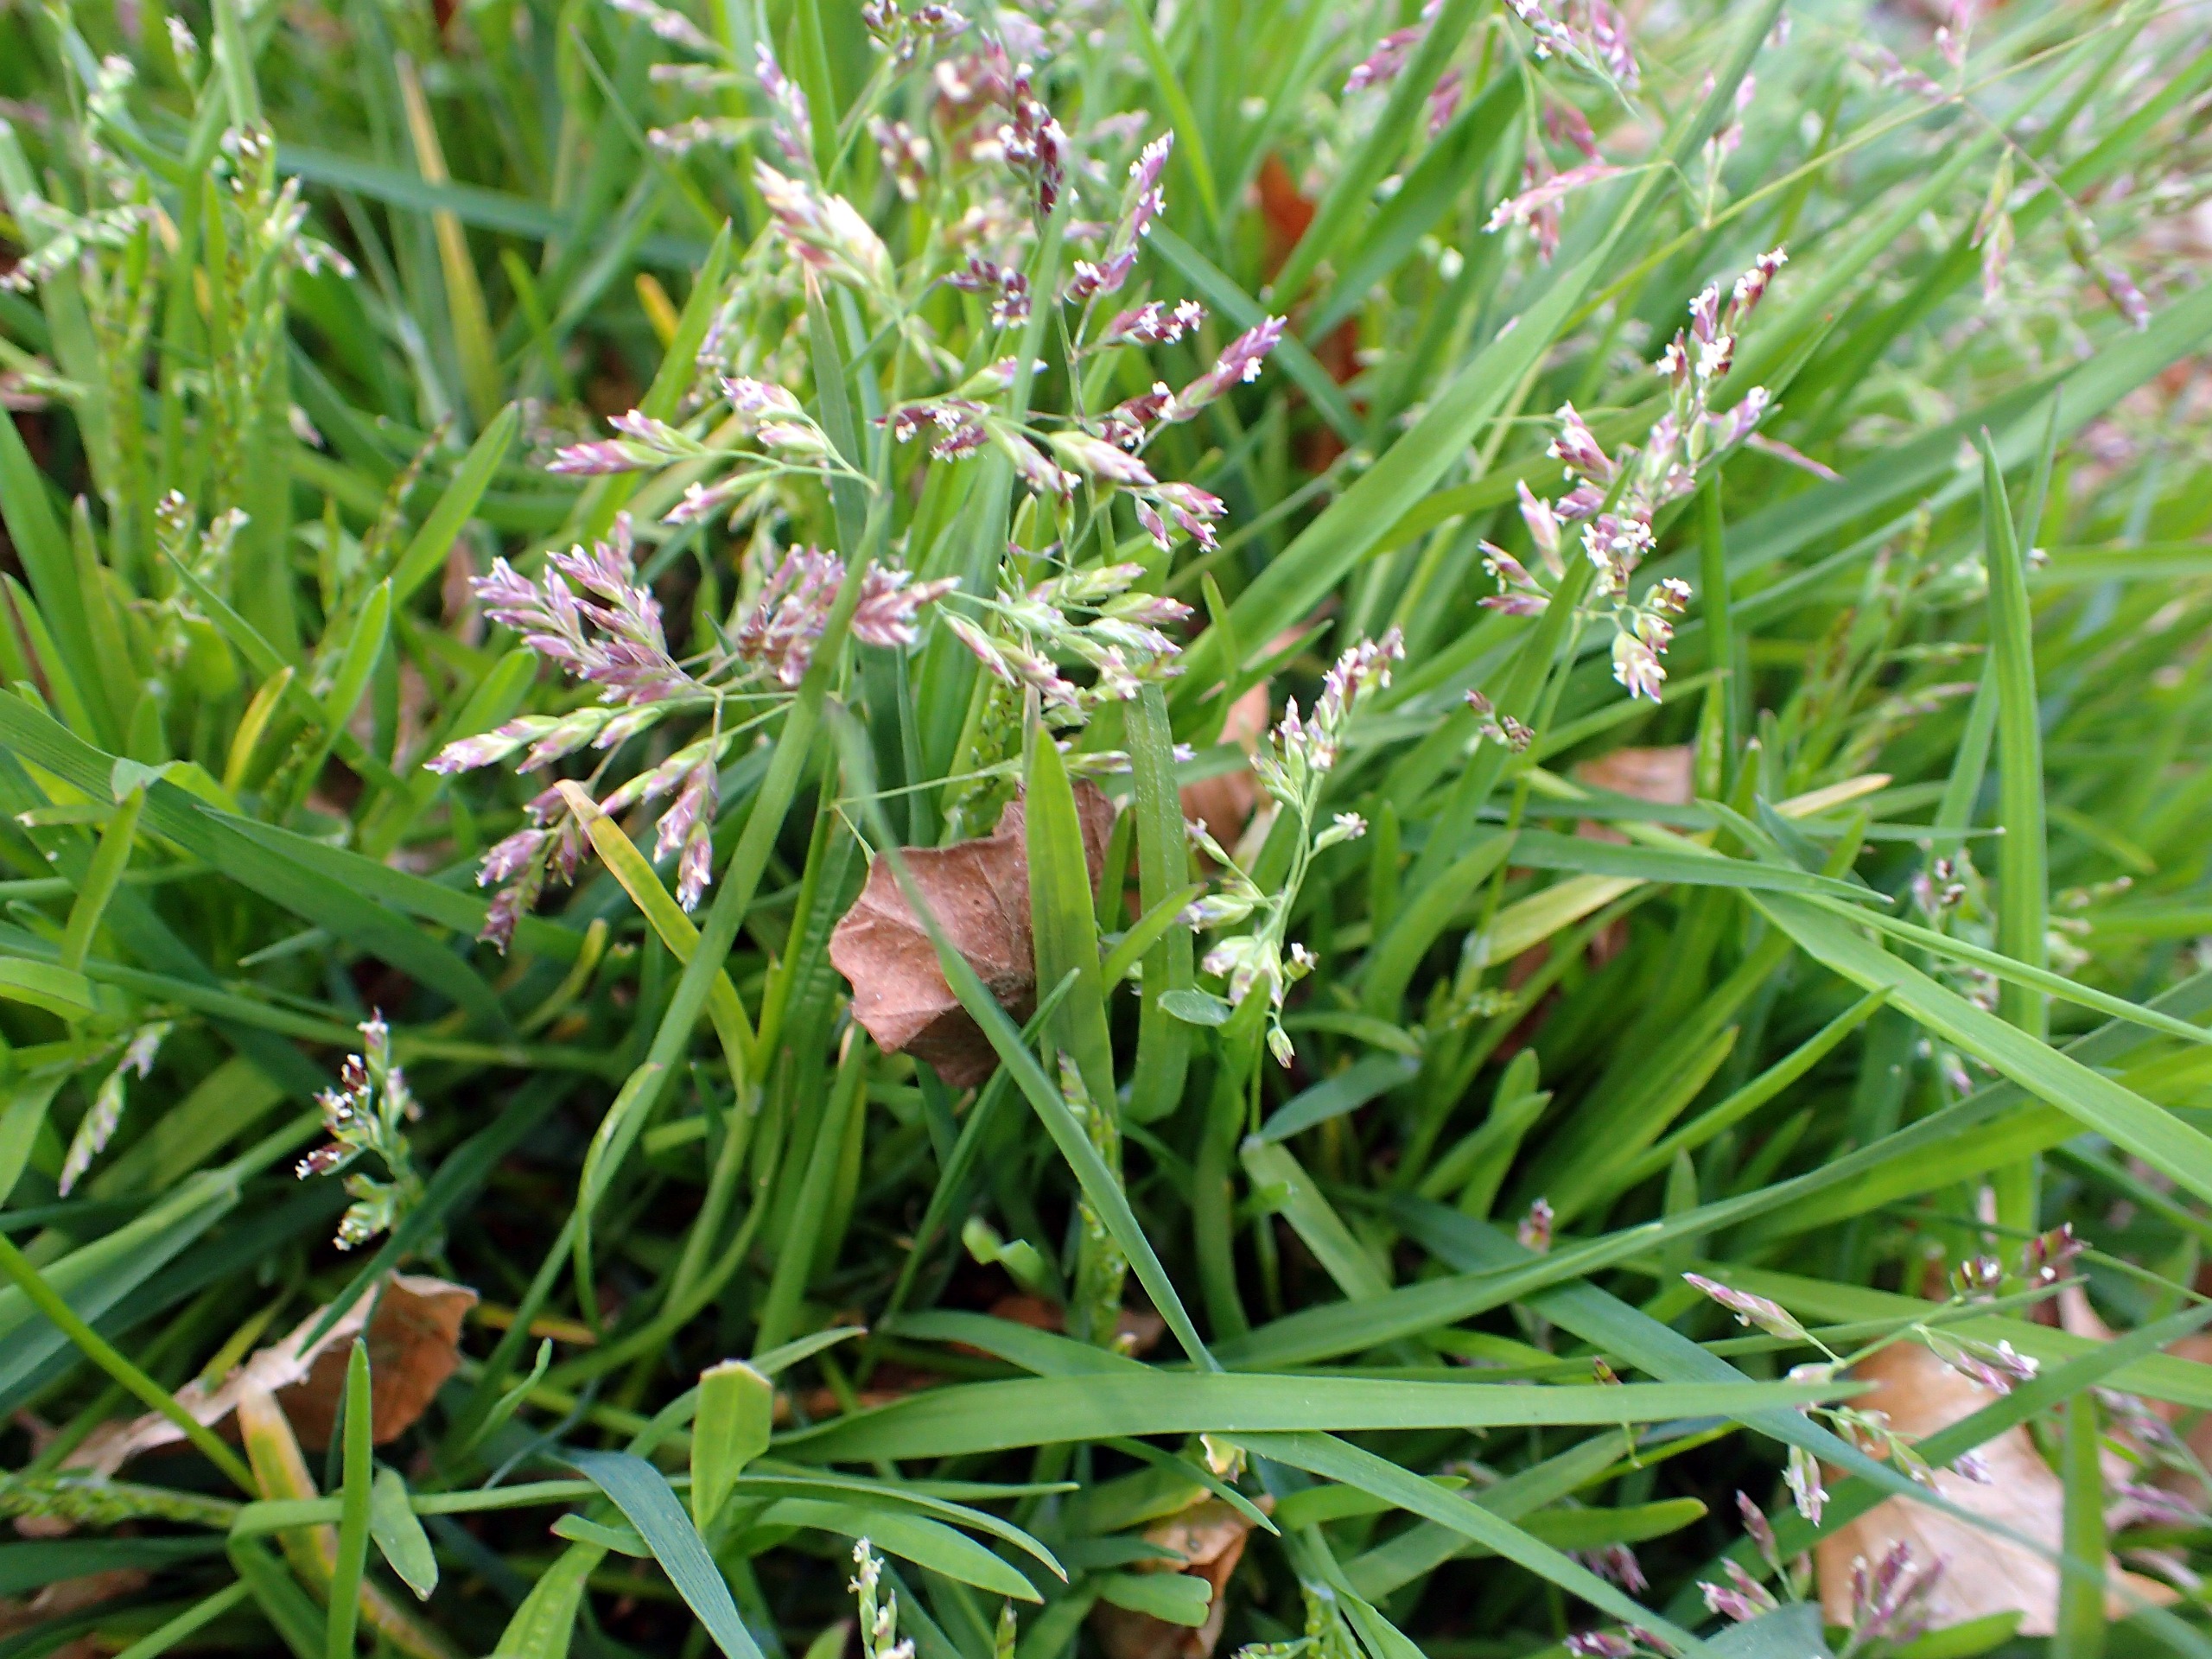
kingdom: Plantae
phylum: Tracheophyta
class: Liliopsida
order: Poales
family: Poaceae
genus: Poa
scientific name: Poa annua
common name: Enårig rapgræs
